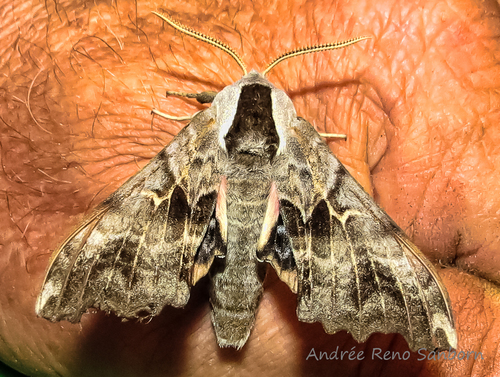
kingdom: Animalia
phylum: Arthropoda
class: Insecta
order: Lepidoptera
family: Sphingidae
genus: Smerinthus
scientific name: Smerinthus cerisyi
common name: Cerisy's sphinx moth
